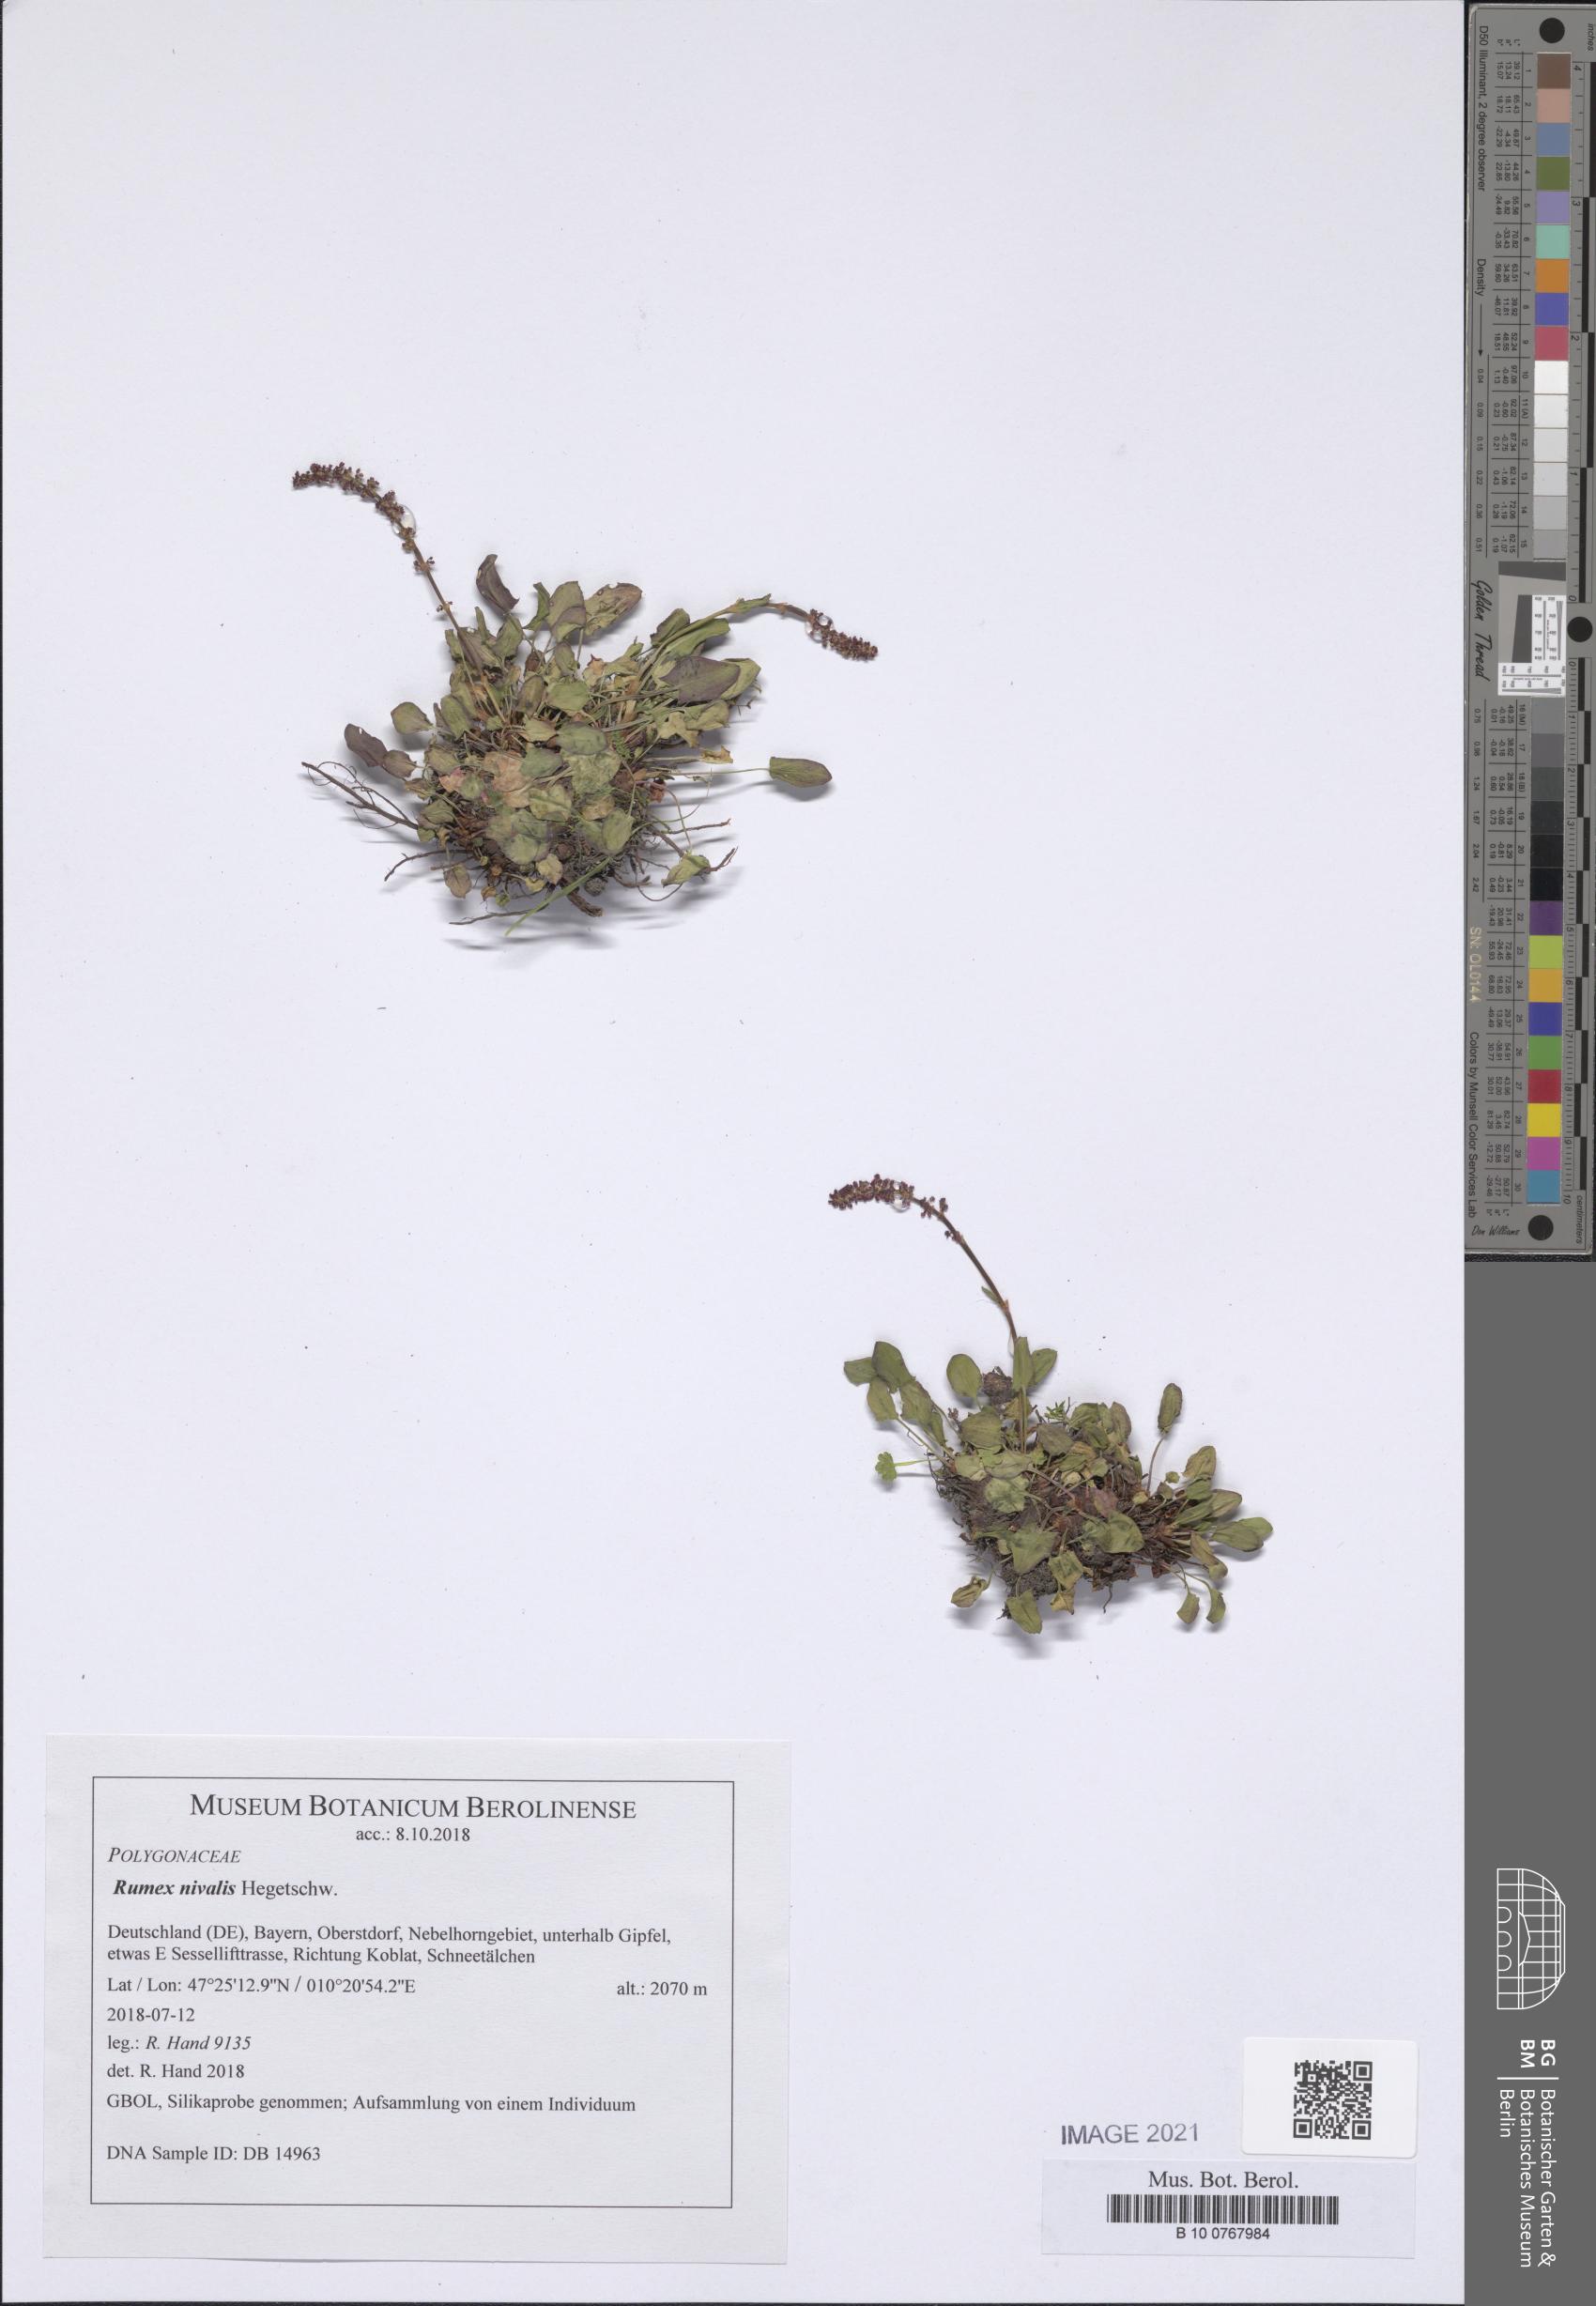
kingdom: Plantae
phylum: Tracheophyta
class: Magnoliopsida
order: Caryophyllales
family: Polygonaceae
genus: Rumex
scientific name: Rumex nivalis
